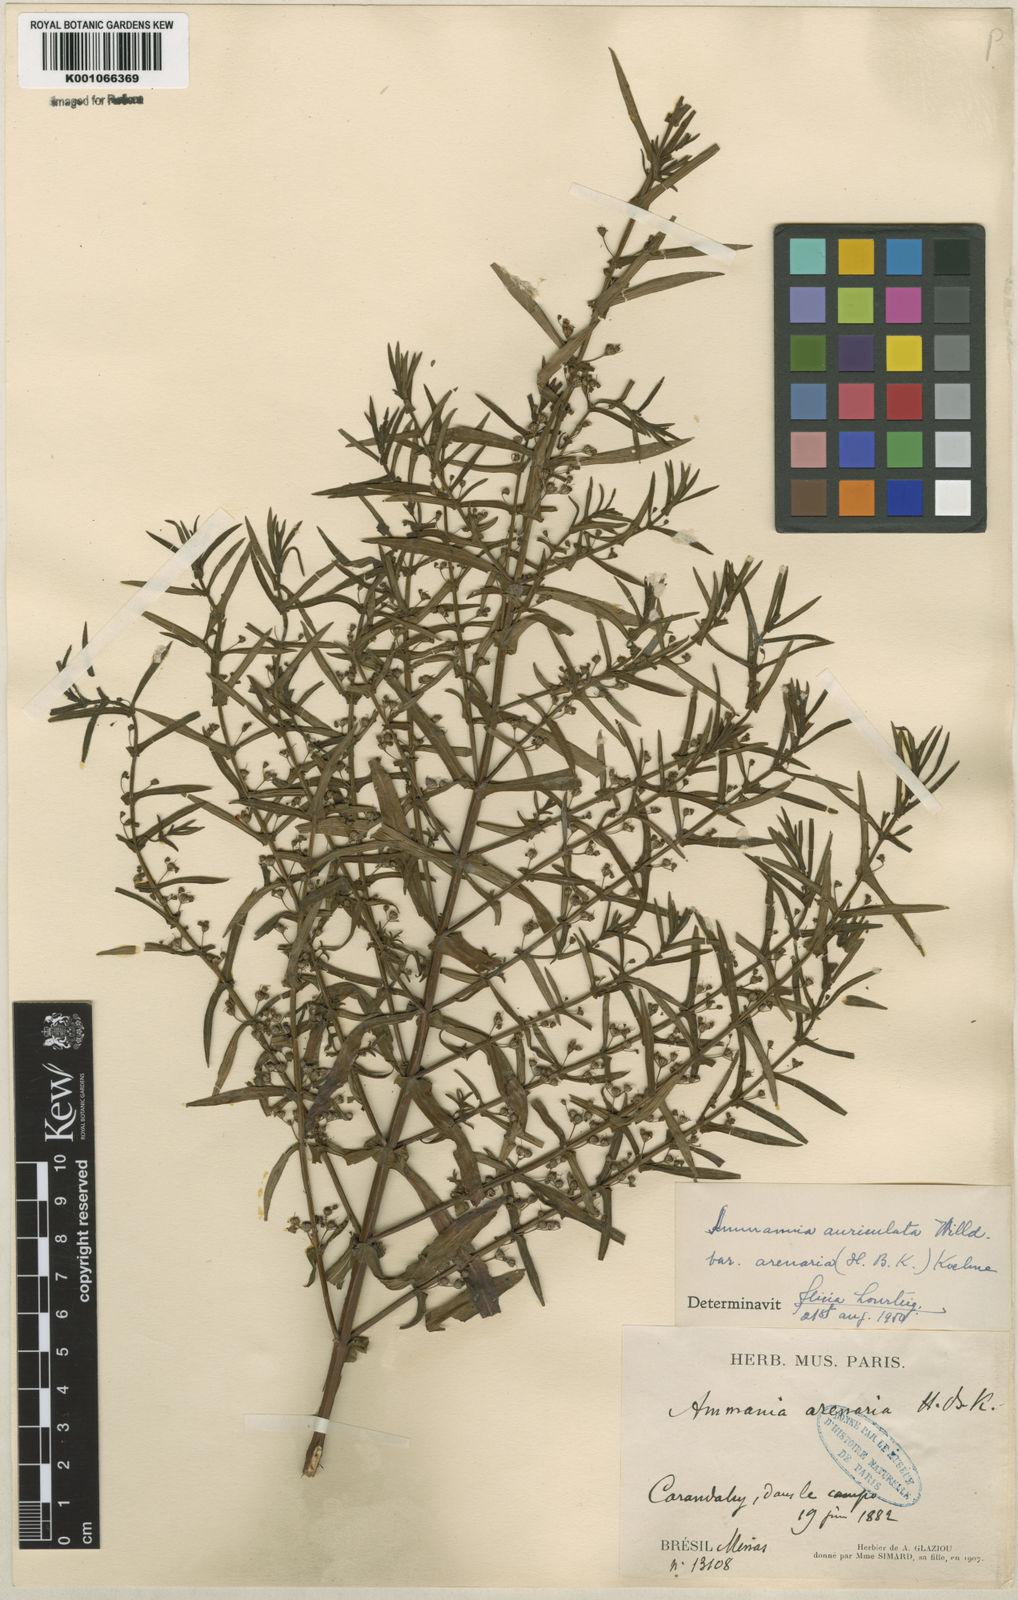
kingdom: Plantae
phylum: Tracheophyta
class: Magnoliopsida
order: Myrtales
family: Lythraceae
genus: Ammannia
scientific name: Ammannia auriculata
